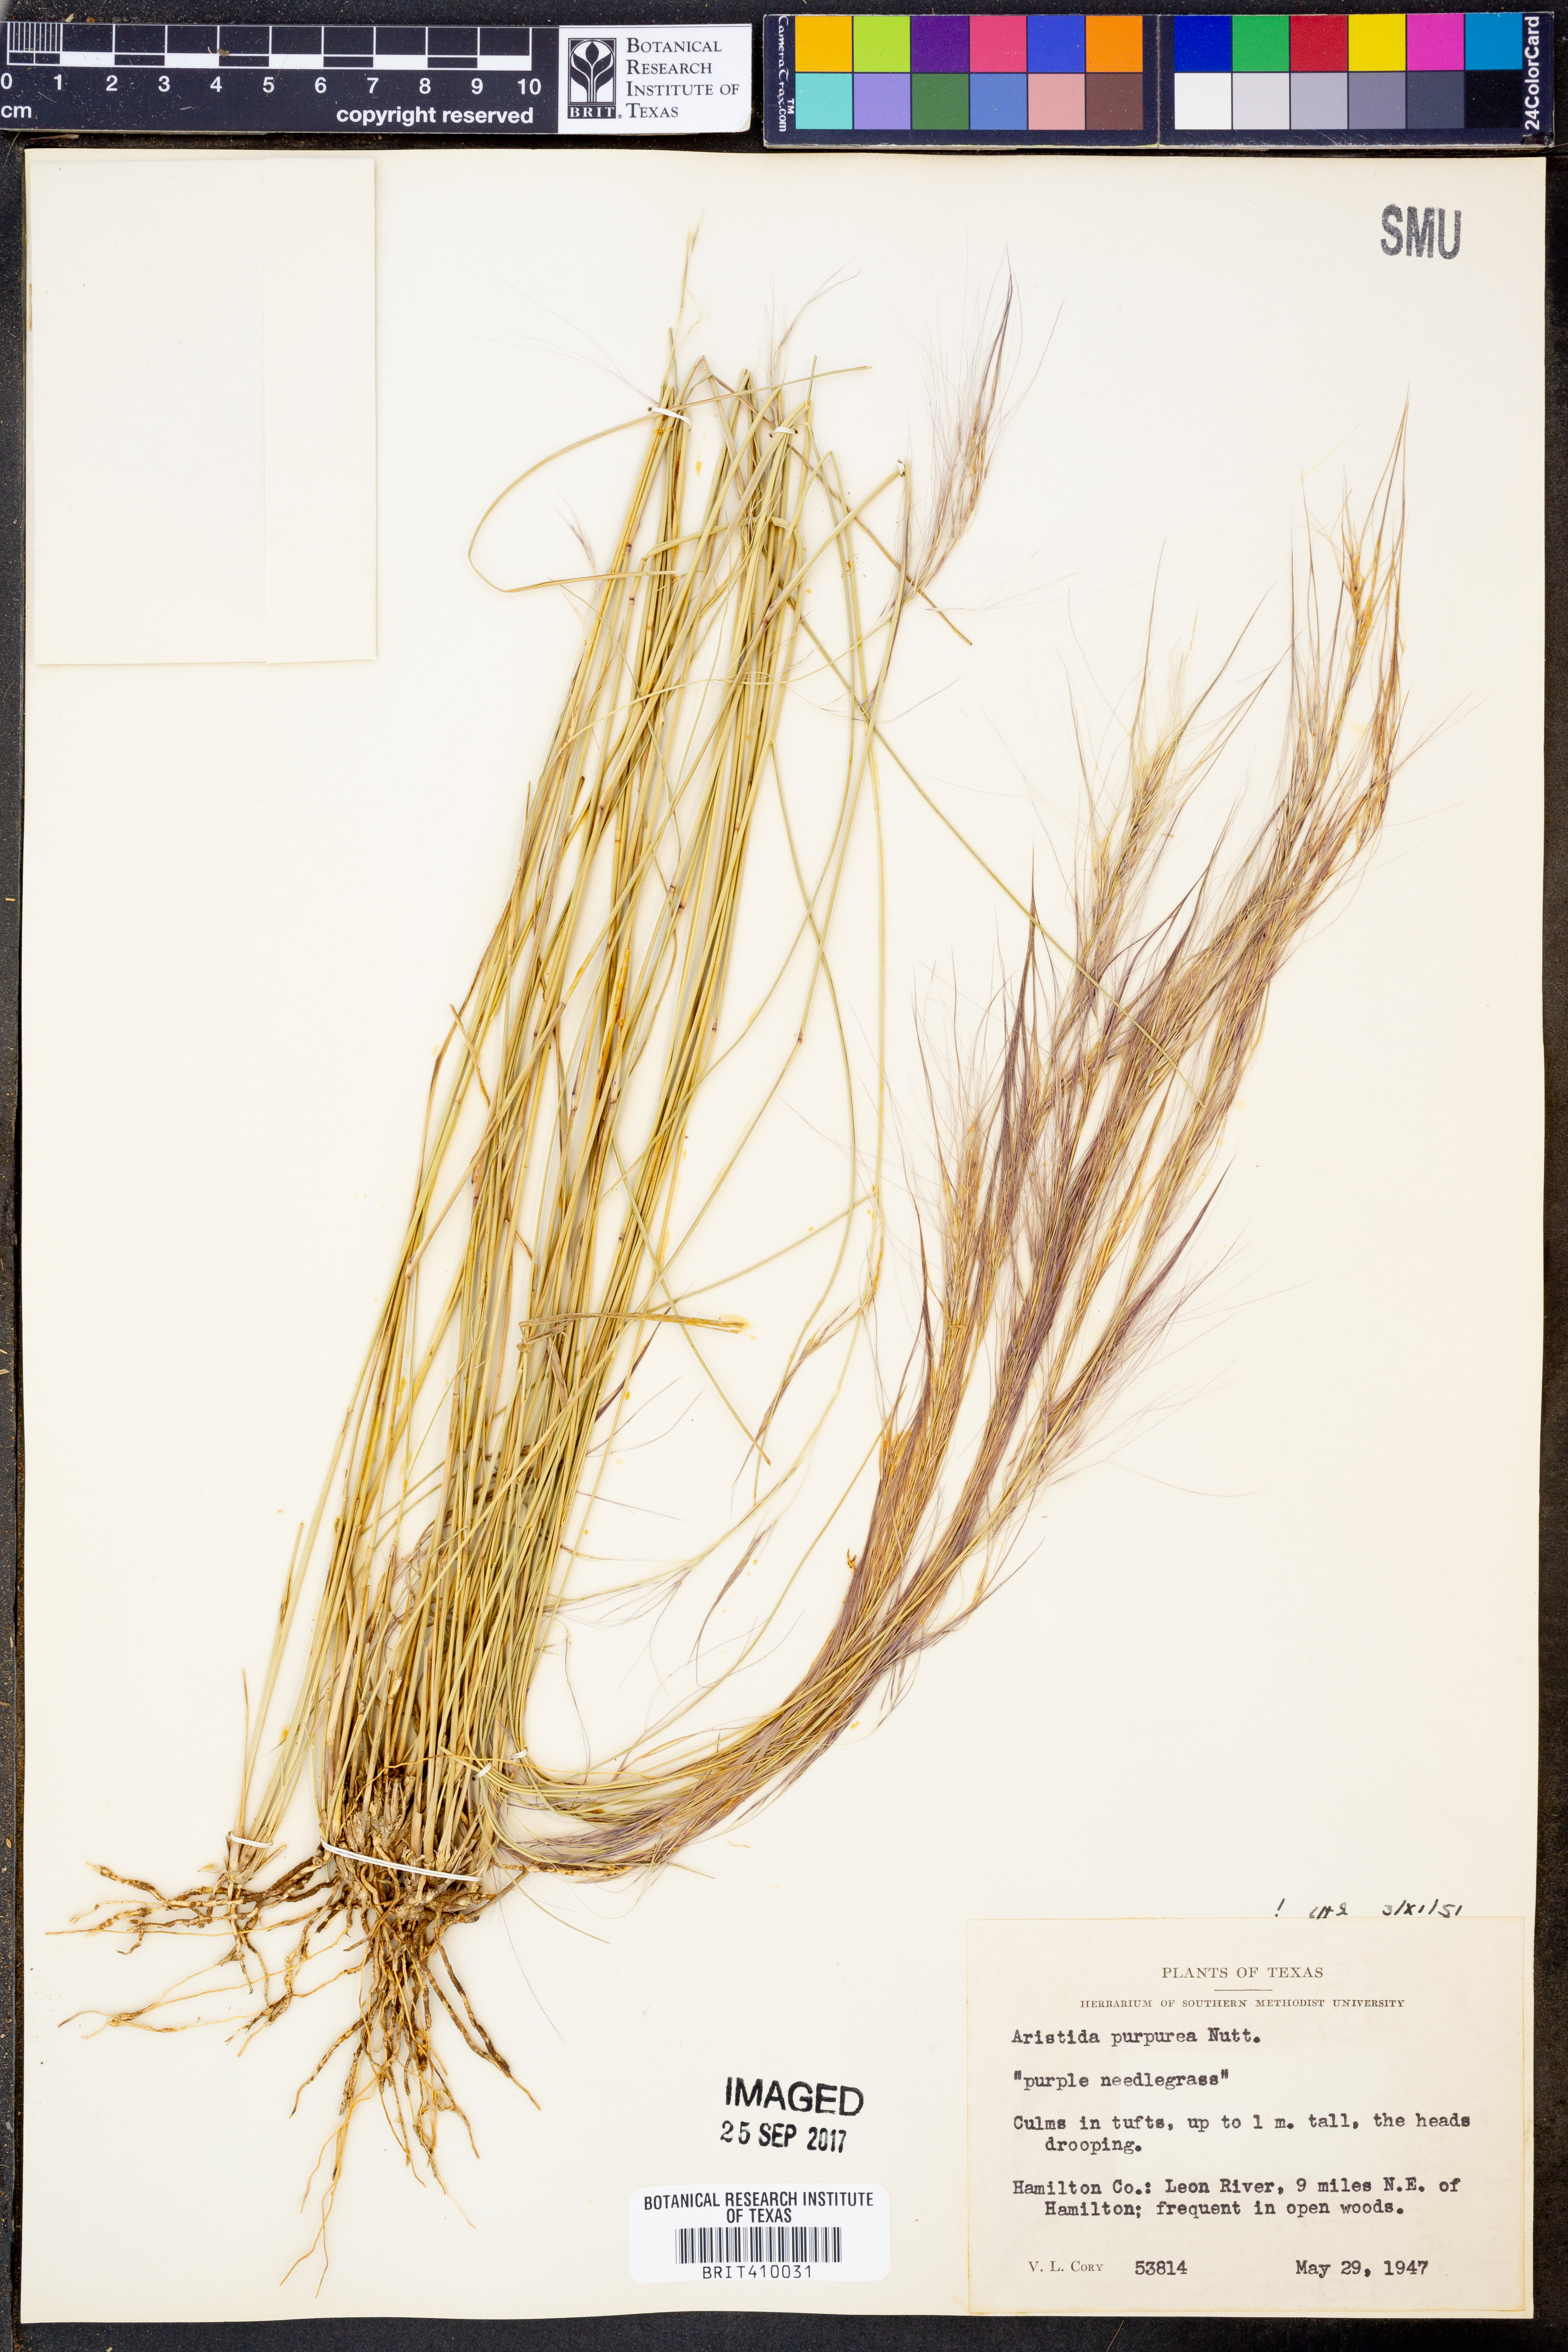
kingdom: Plantae
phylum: Tracheophyta
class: Liliopsida
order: Poales
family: Poaceae
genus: Aristida
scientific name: Aristida purpurea
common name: Purple threeawn
